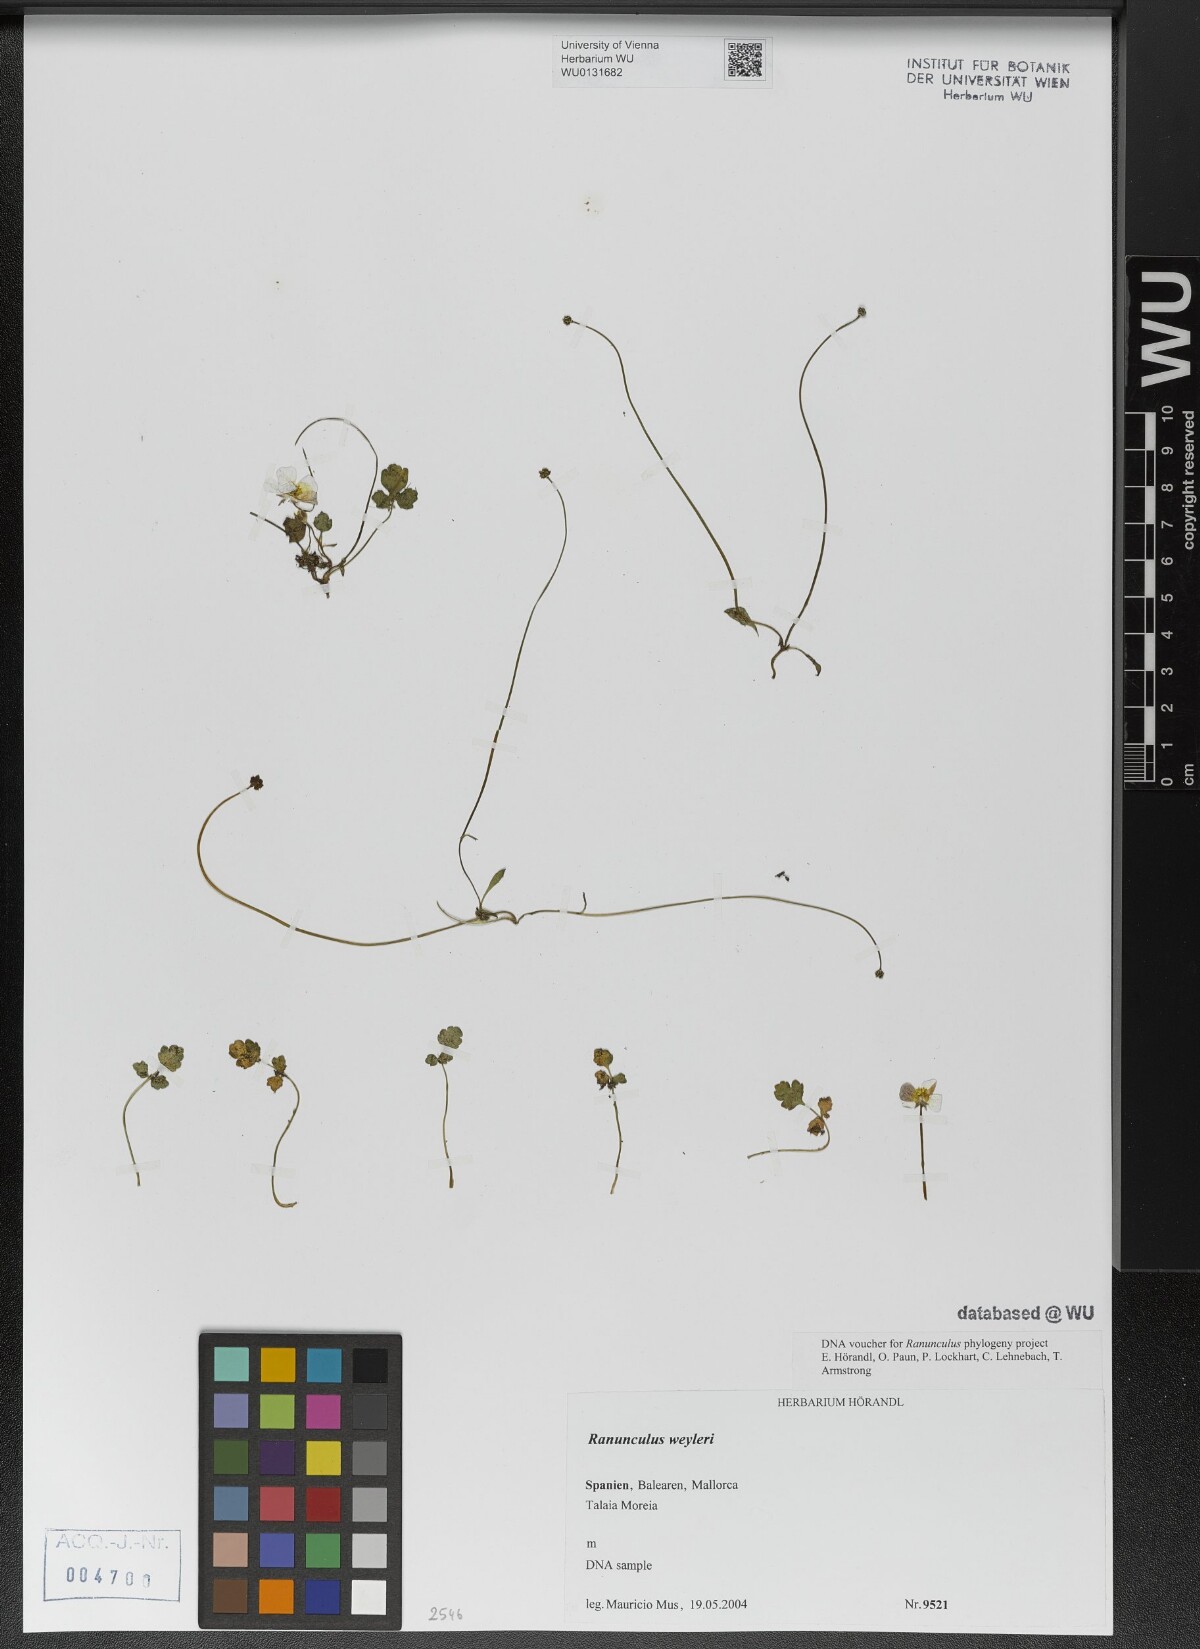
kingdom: Plantae
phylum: Tracheophyta
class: Magnoliopsida
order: Ranunculales
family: Ranunculaceae
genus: Ranunculus
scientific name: Ranunculus weyleri
